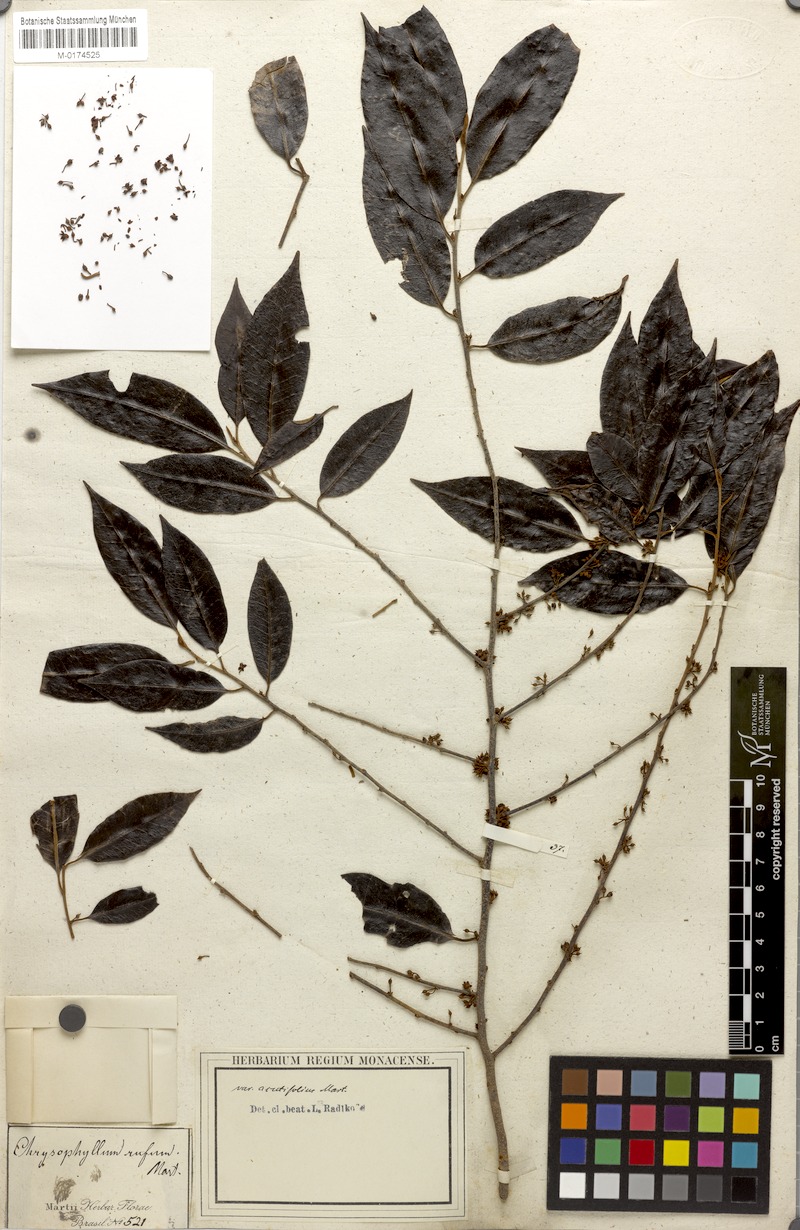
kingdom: Plantae
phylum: Tracheophyta
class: Magnoliopsida
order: Ericales
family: Sapotaceae
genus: Chrysophyllum
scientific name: Chrysophyllum rufum
